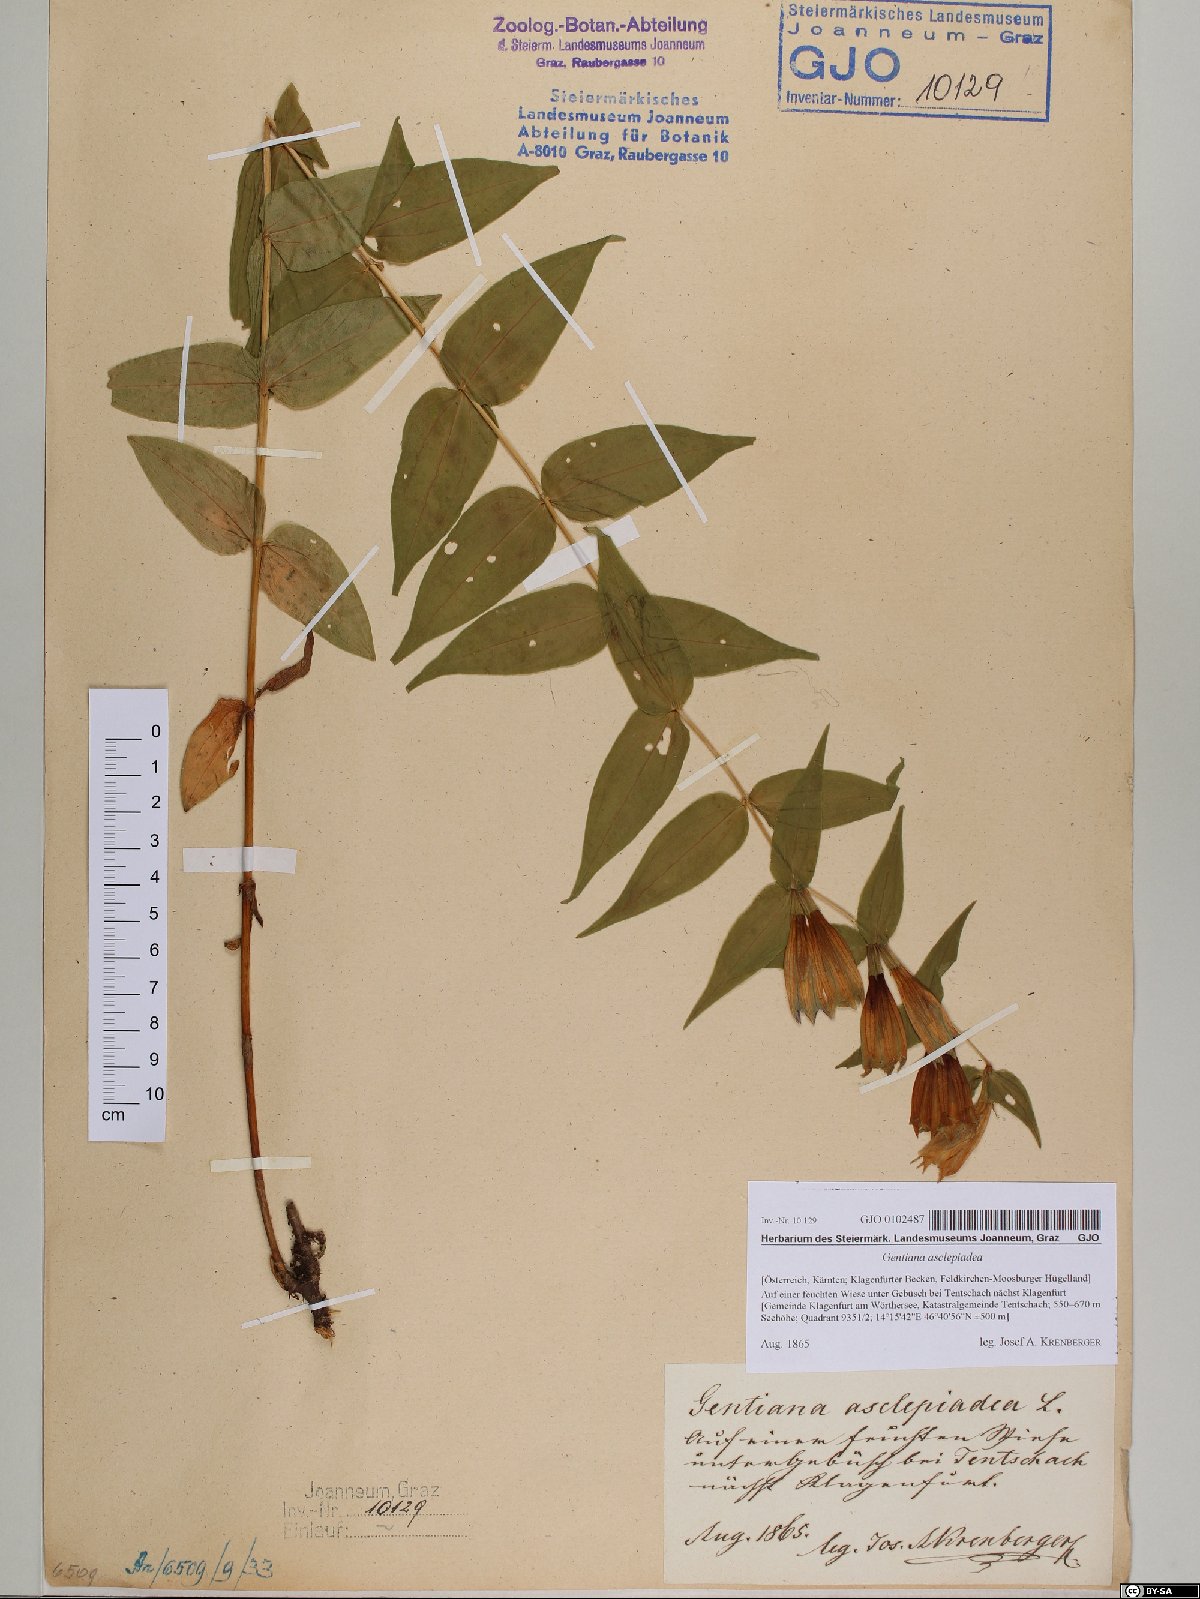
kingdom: Plantae
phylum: Tracheophyta
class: Magnoliopsida
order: Gentianales
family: Gentianaceae
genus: Gentiana
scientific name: Gentiana asclepiadea
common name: Willow gentian
